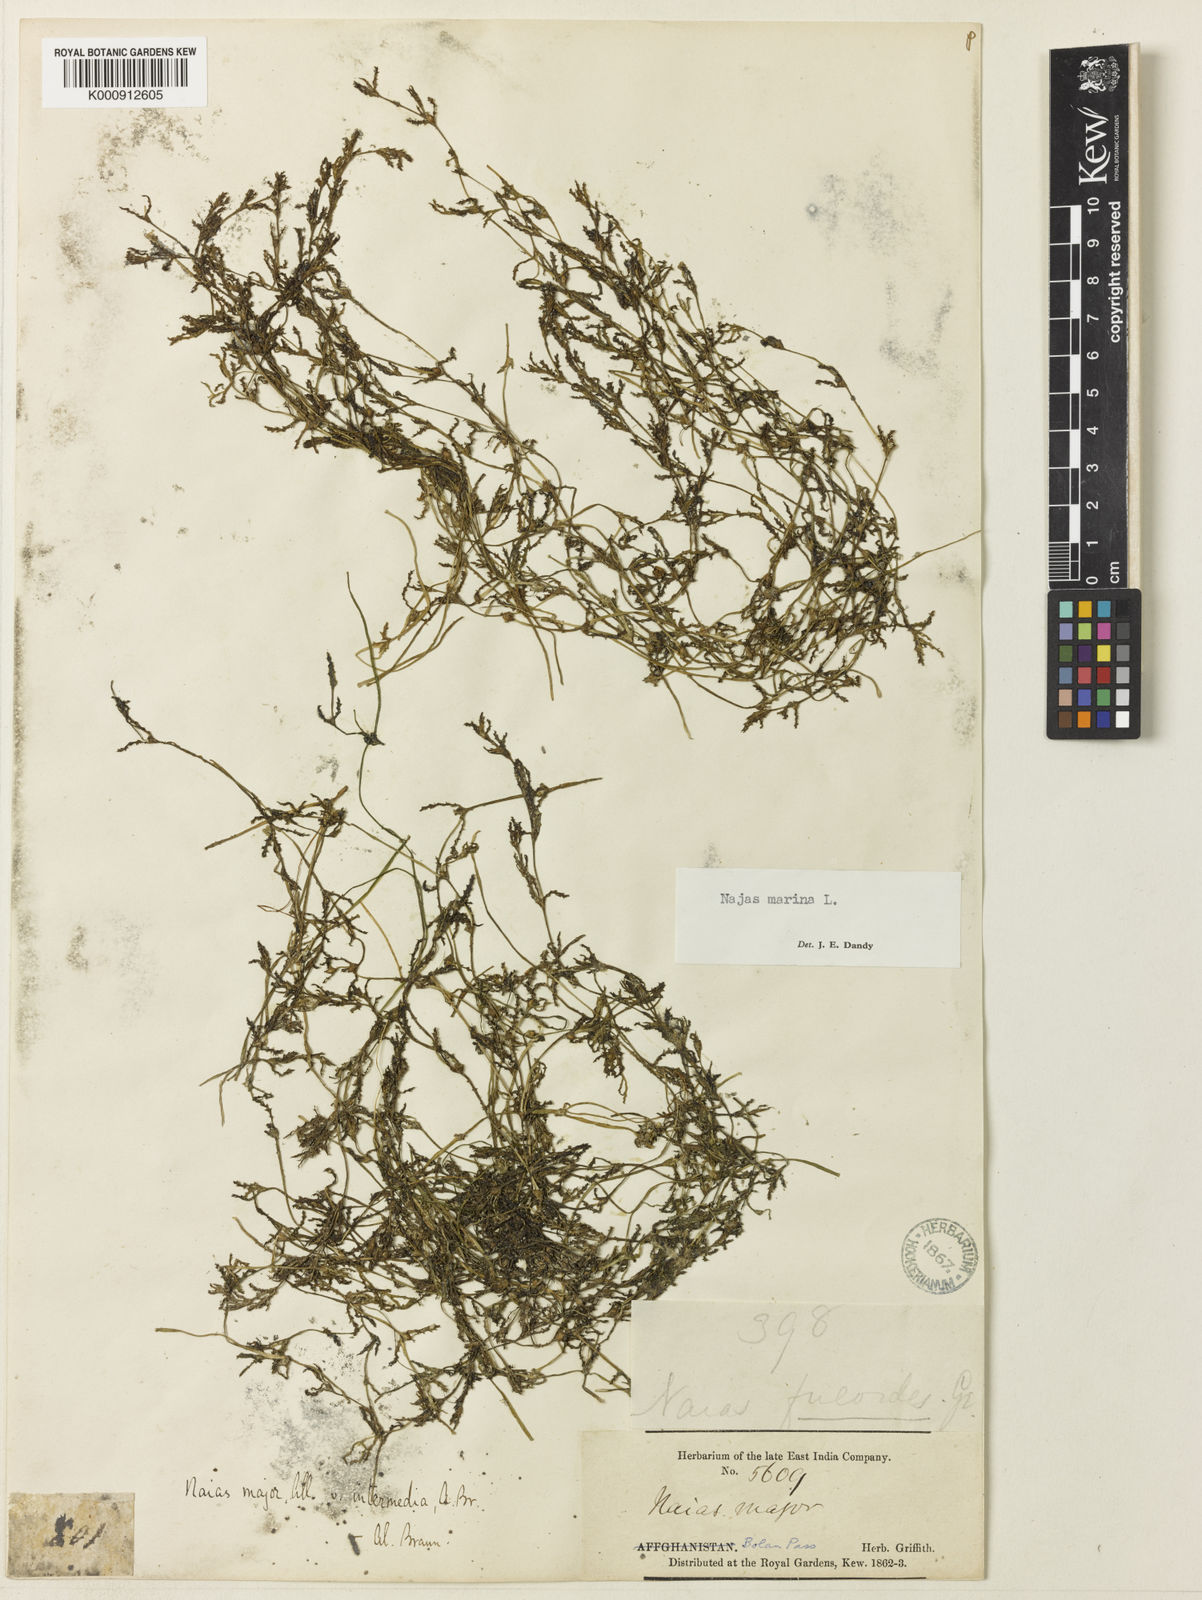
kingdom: Plantae
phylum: Tracheophyta
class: Liliopsida
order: Alismatales
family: Hydrocharitaceae
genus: Najas
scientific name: Najas marina
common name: Holly-leaved naiad
